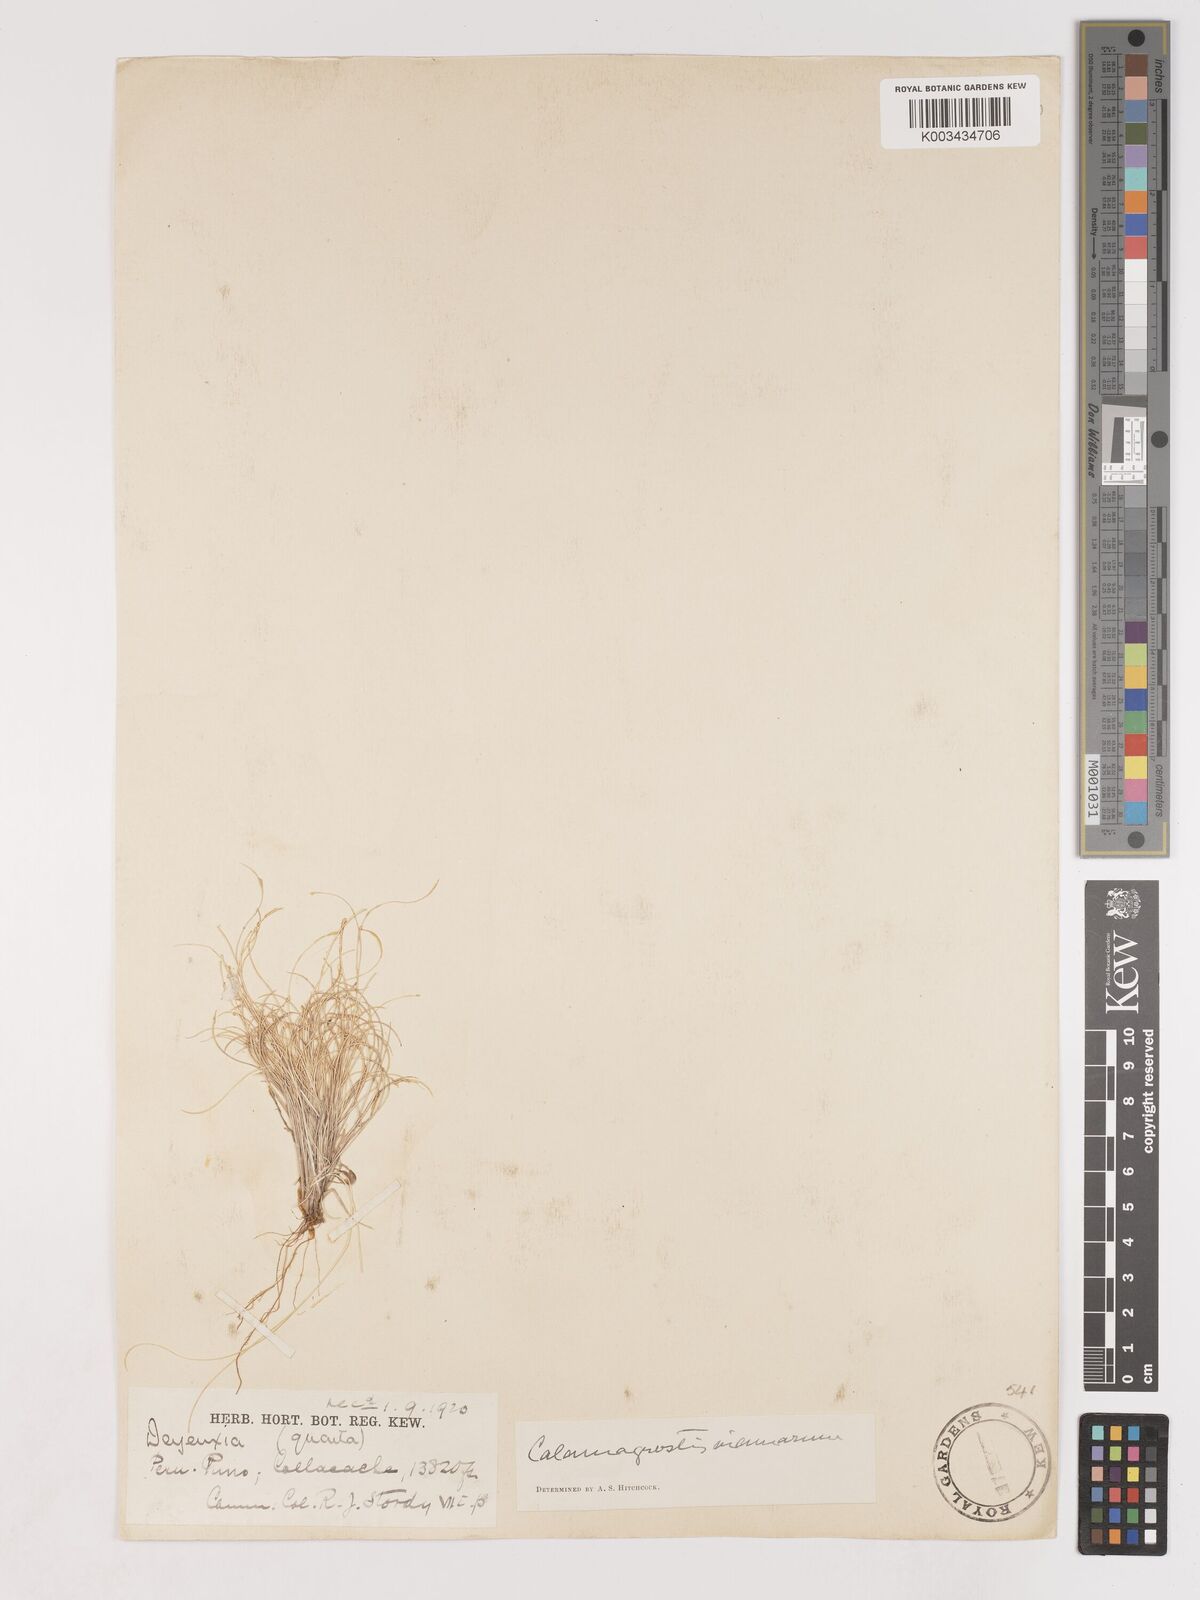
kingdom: Plantae
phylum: Tracheophyta
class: Liliopsida
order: Poales
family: Poaceae
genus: Cinnagrostis
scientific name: Cinnagrostis vicunarum
